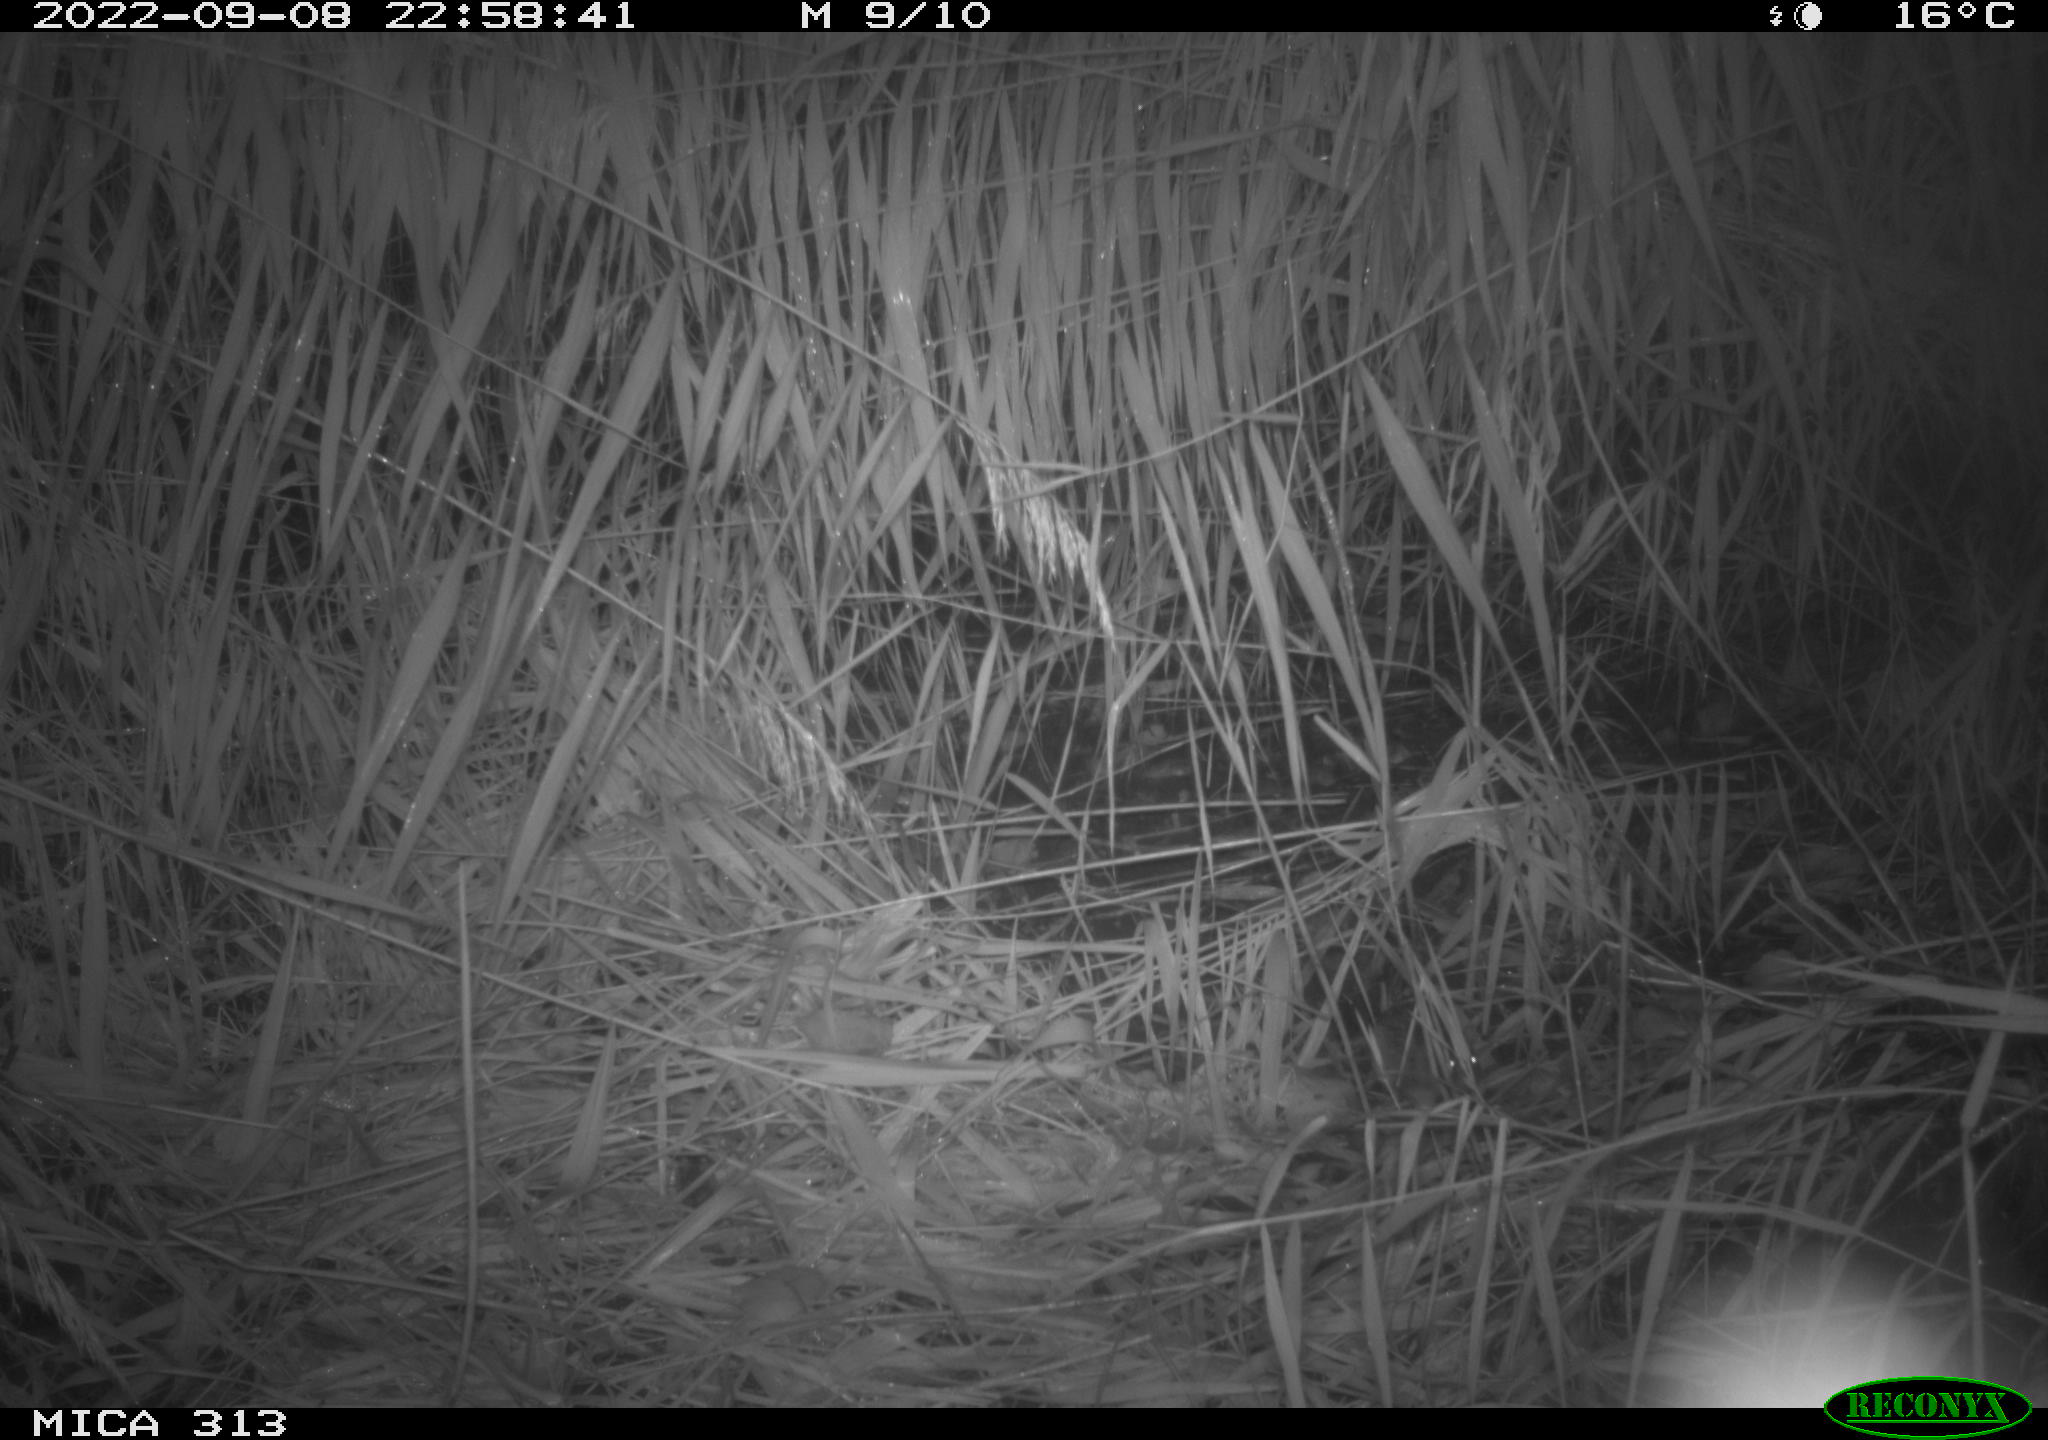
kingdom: Animalia
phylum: Chordata
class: Mammalia
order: Rodentia
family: Muridae
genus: Rattus
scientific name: Rattus norvegicus
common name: Brown rat
